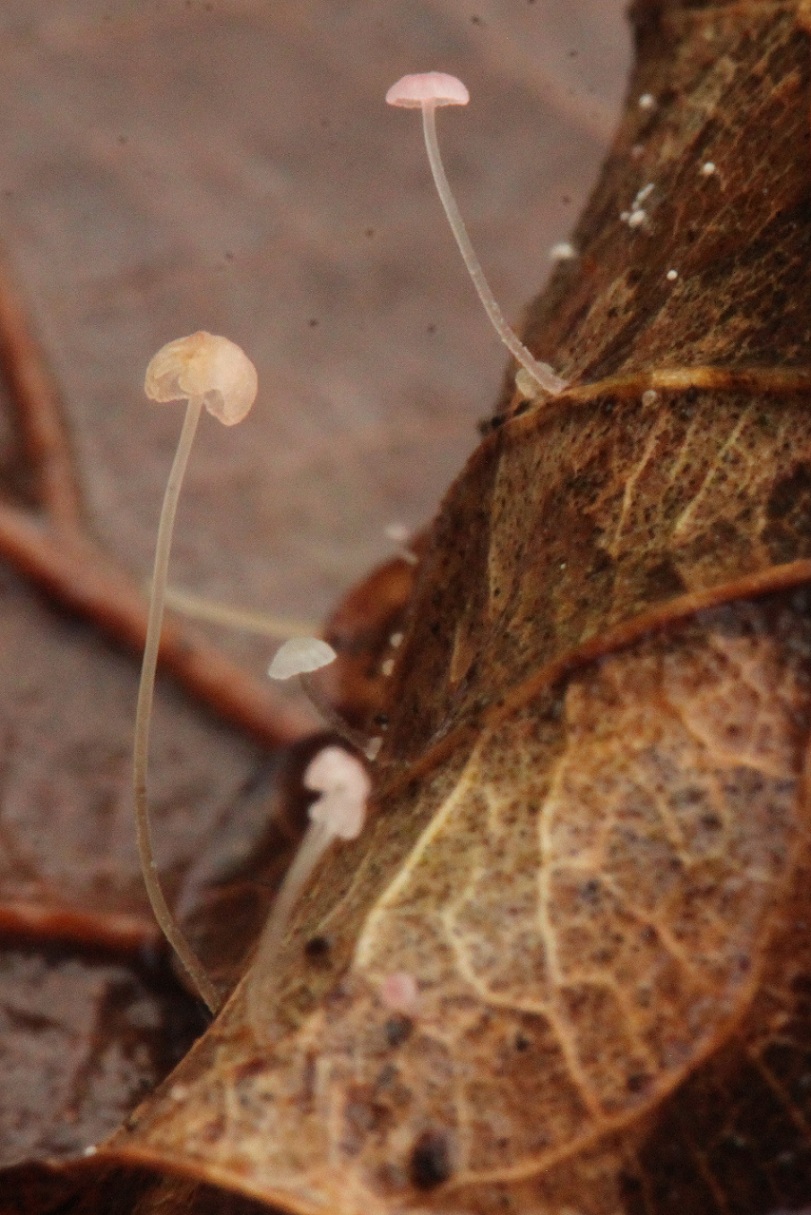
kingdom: Fungi
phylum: Basidiomycota
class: Agaricomycetes
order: Agaricales
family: Mycenaceae
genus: Mycena
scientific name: Mycena smithiana
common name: blegrød huesvamp
